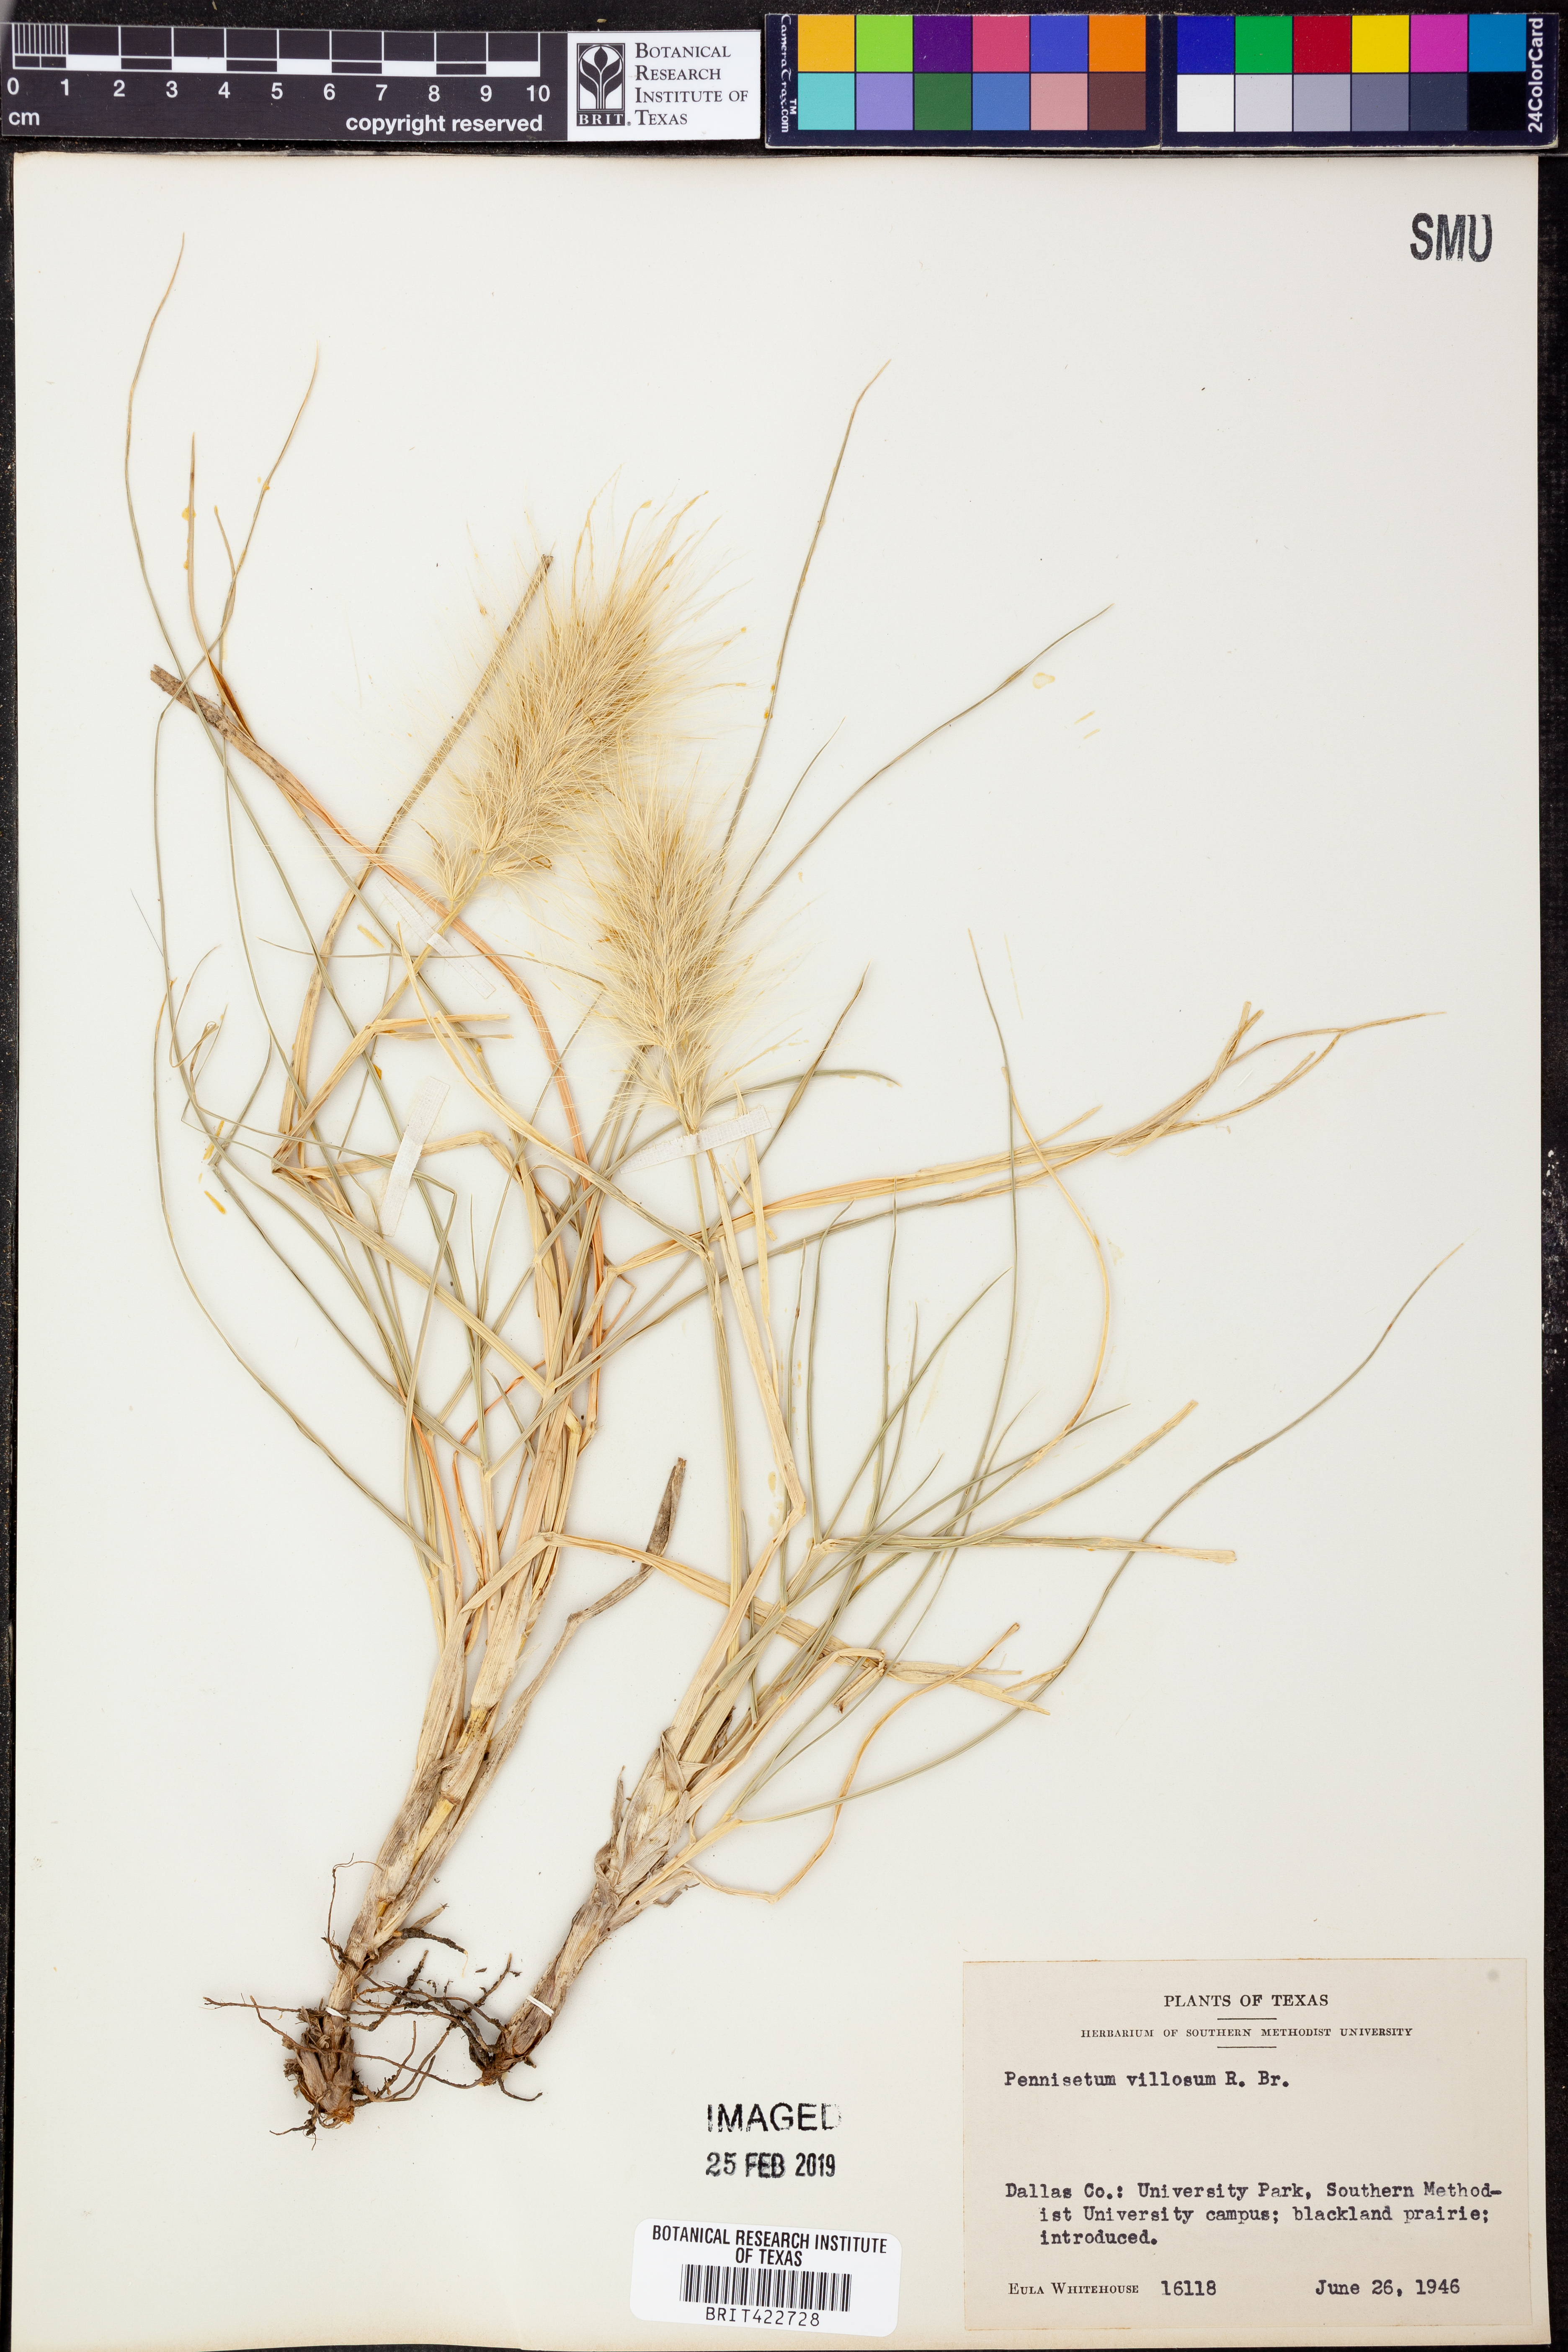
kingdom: Plantae
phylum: Tracheophyta
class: Liliopsida
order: Poales
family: Poaceae
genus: Cenchrus
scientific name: Cenchrus longisetus
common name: Feathertop
